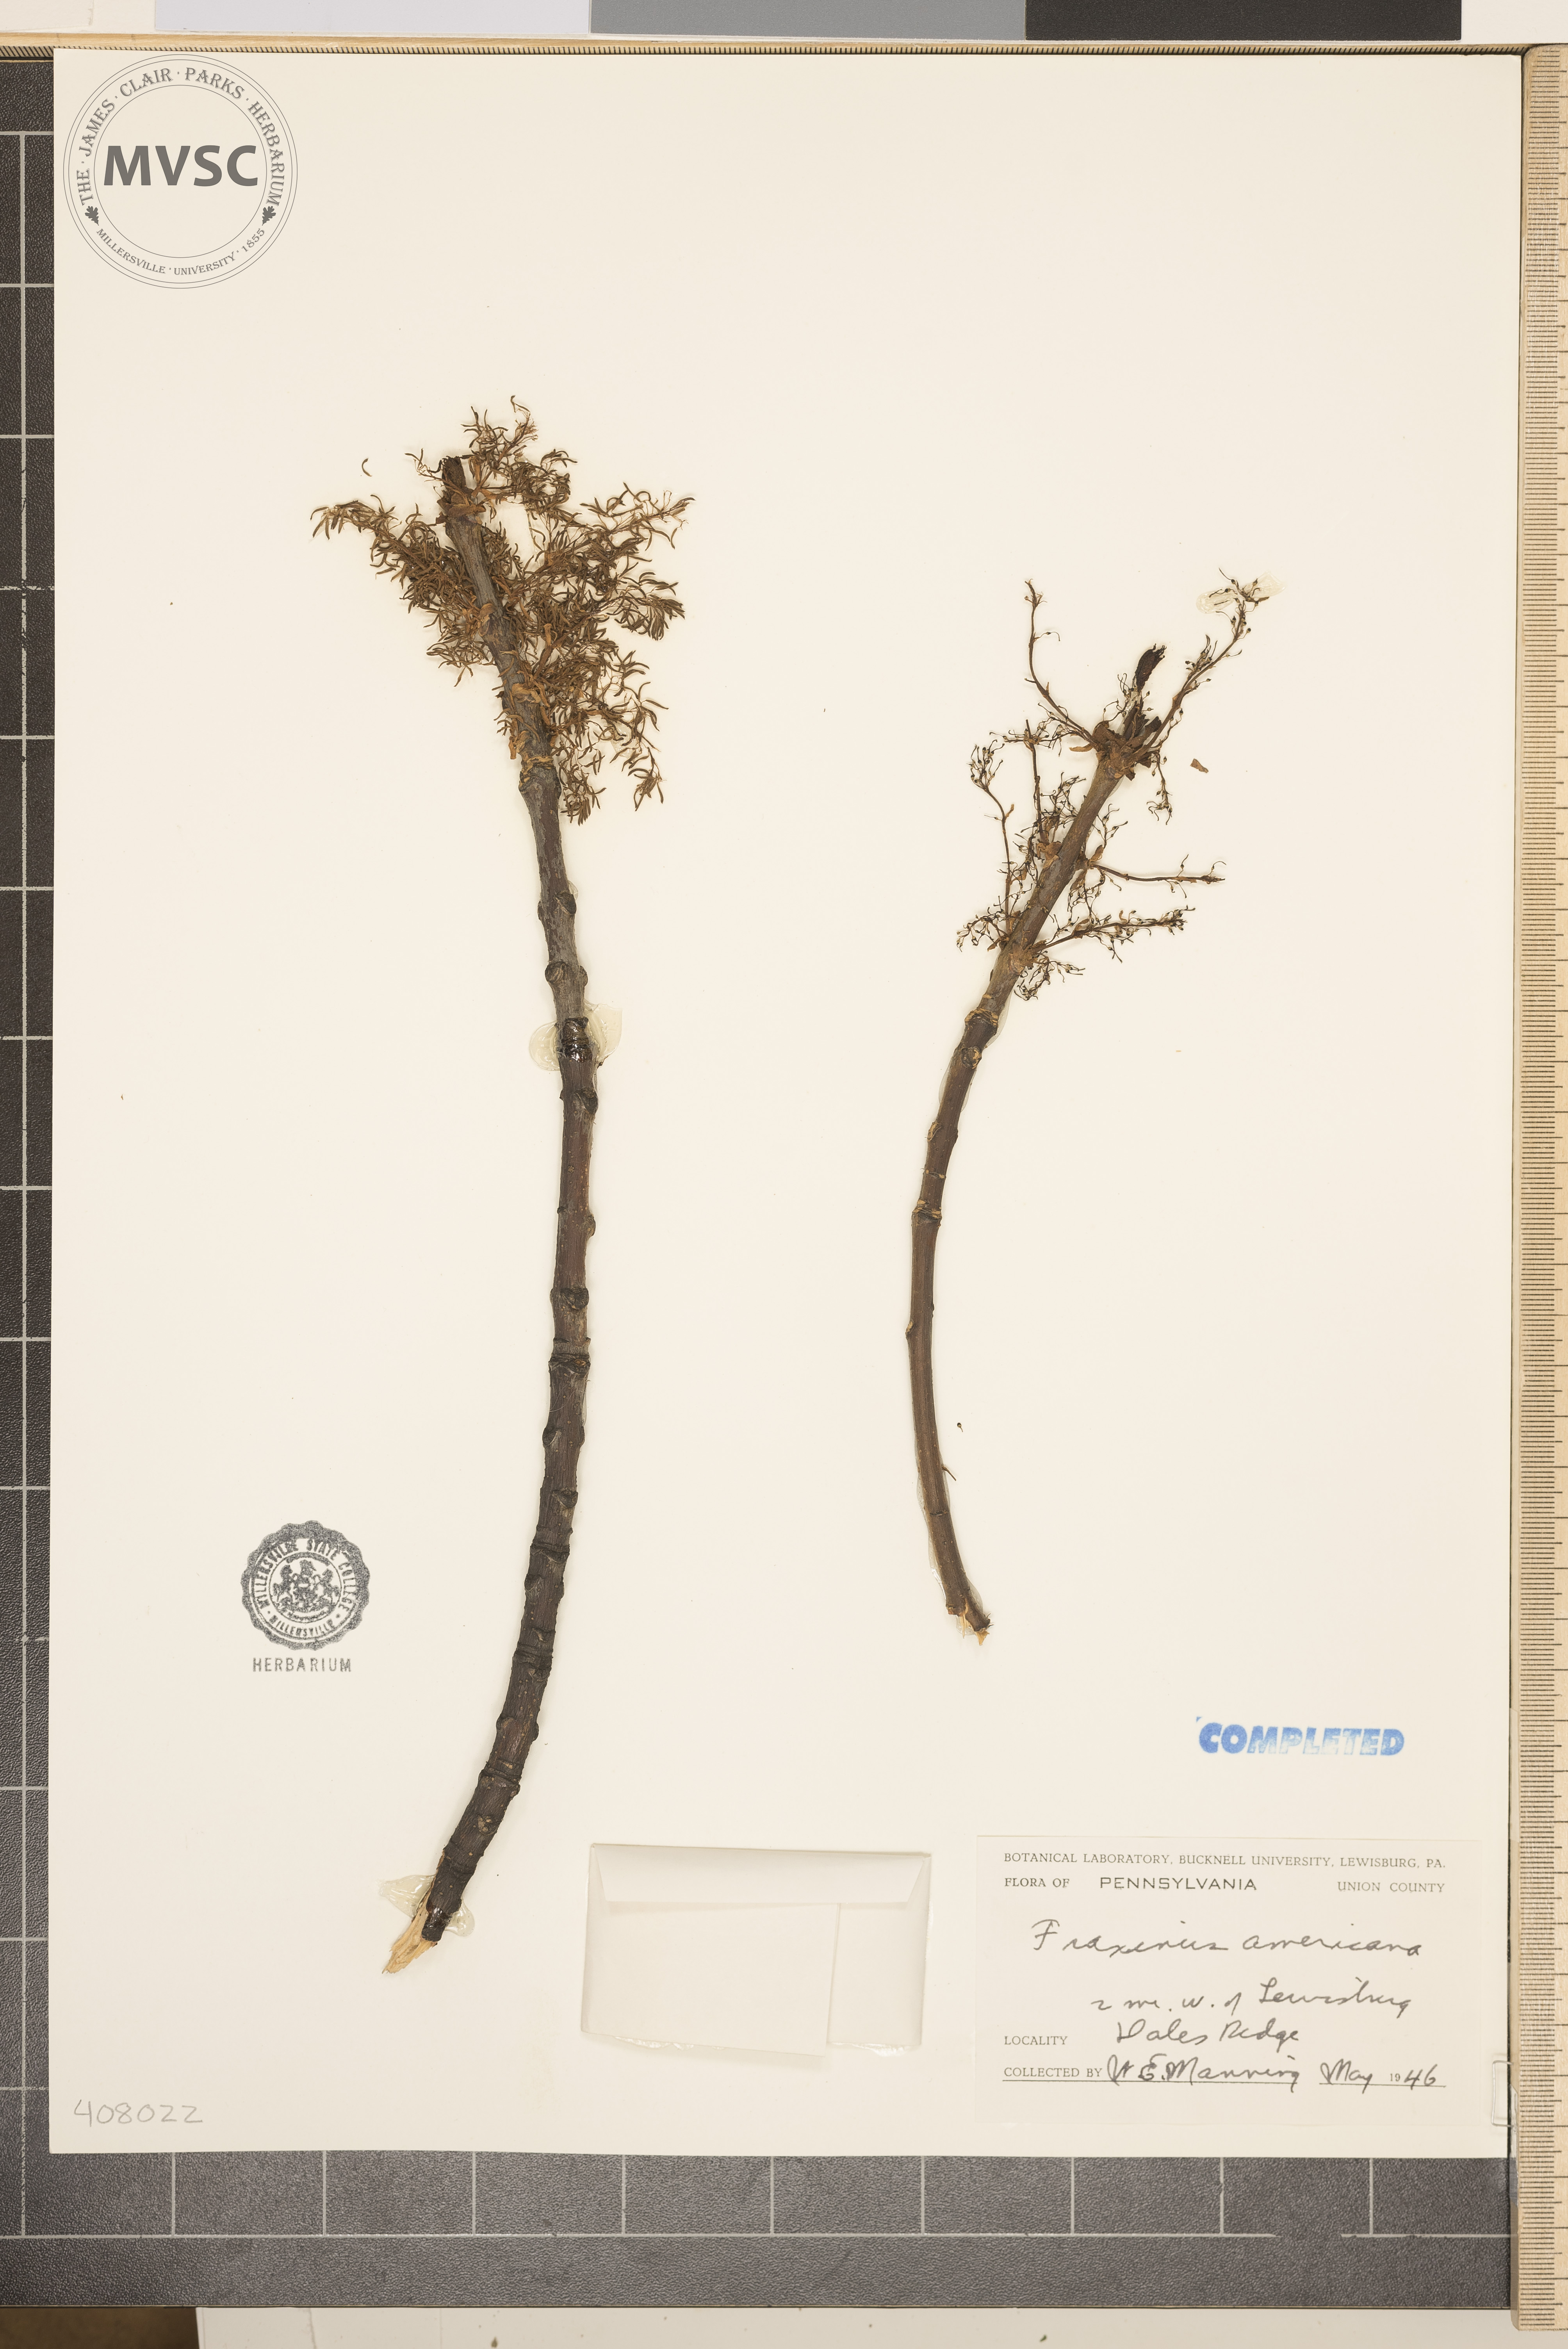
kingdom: Plantae
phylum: Tracheophyta
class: Magnoliopsida
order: Lamiales
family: Oleaceae
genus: Fraxinus
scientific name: Fraxinus americana
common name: White ash
